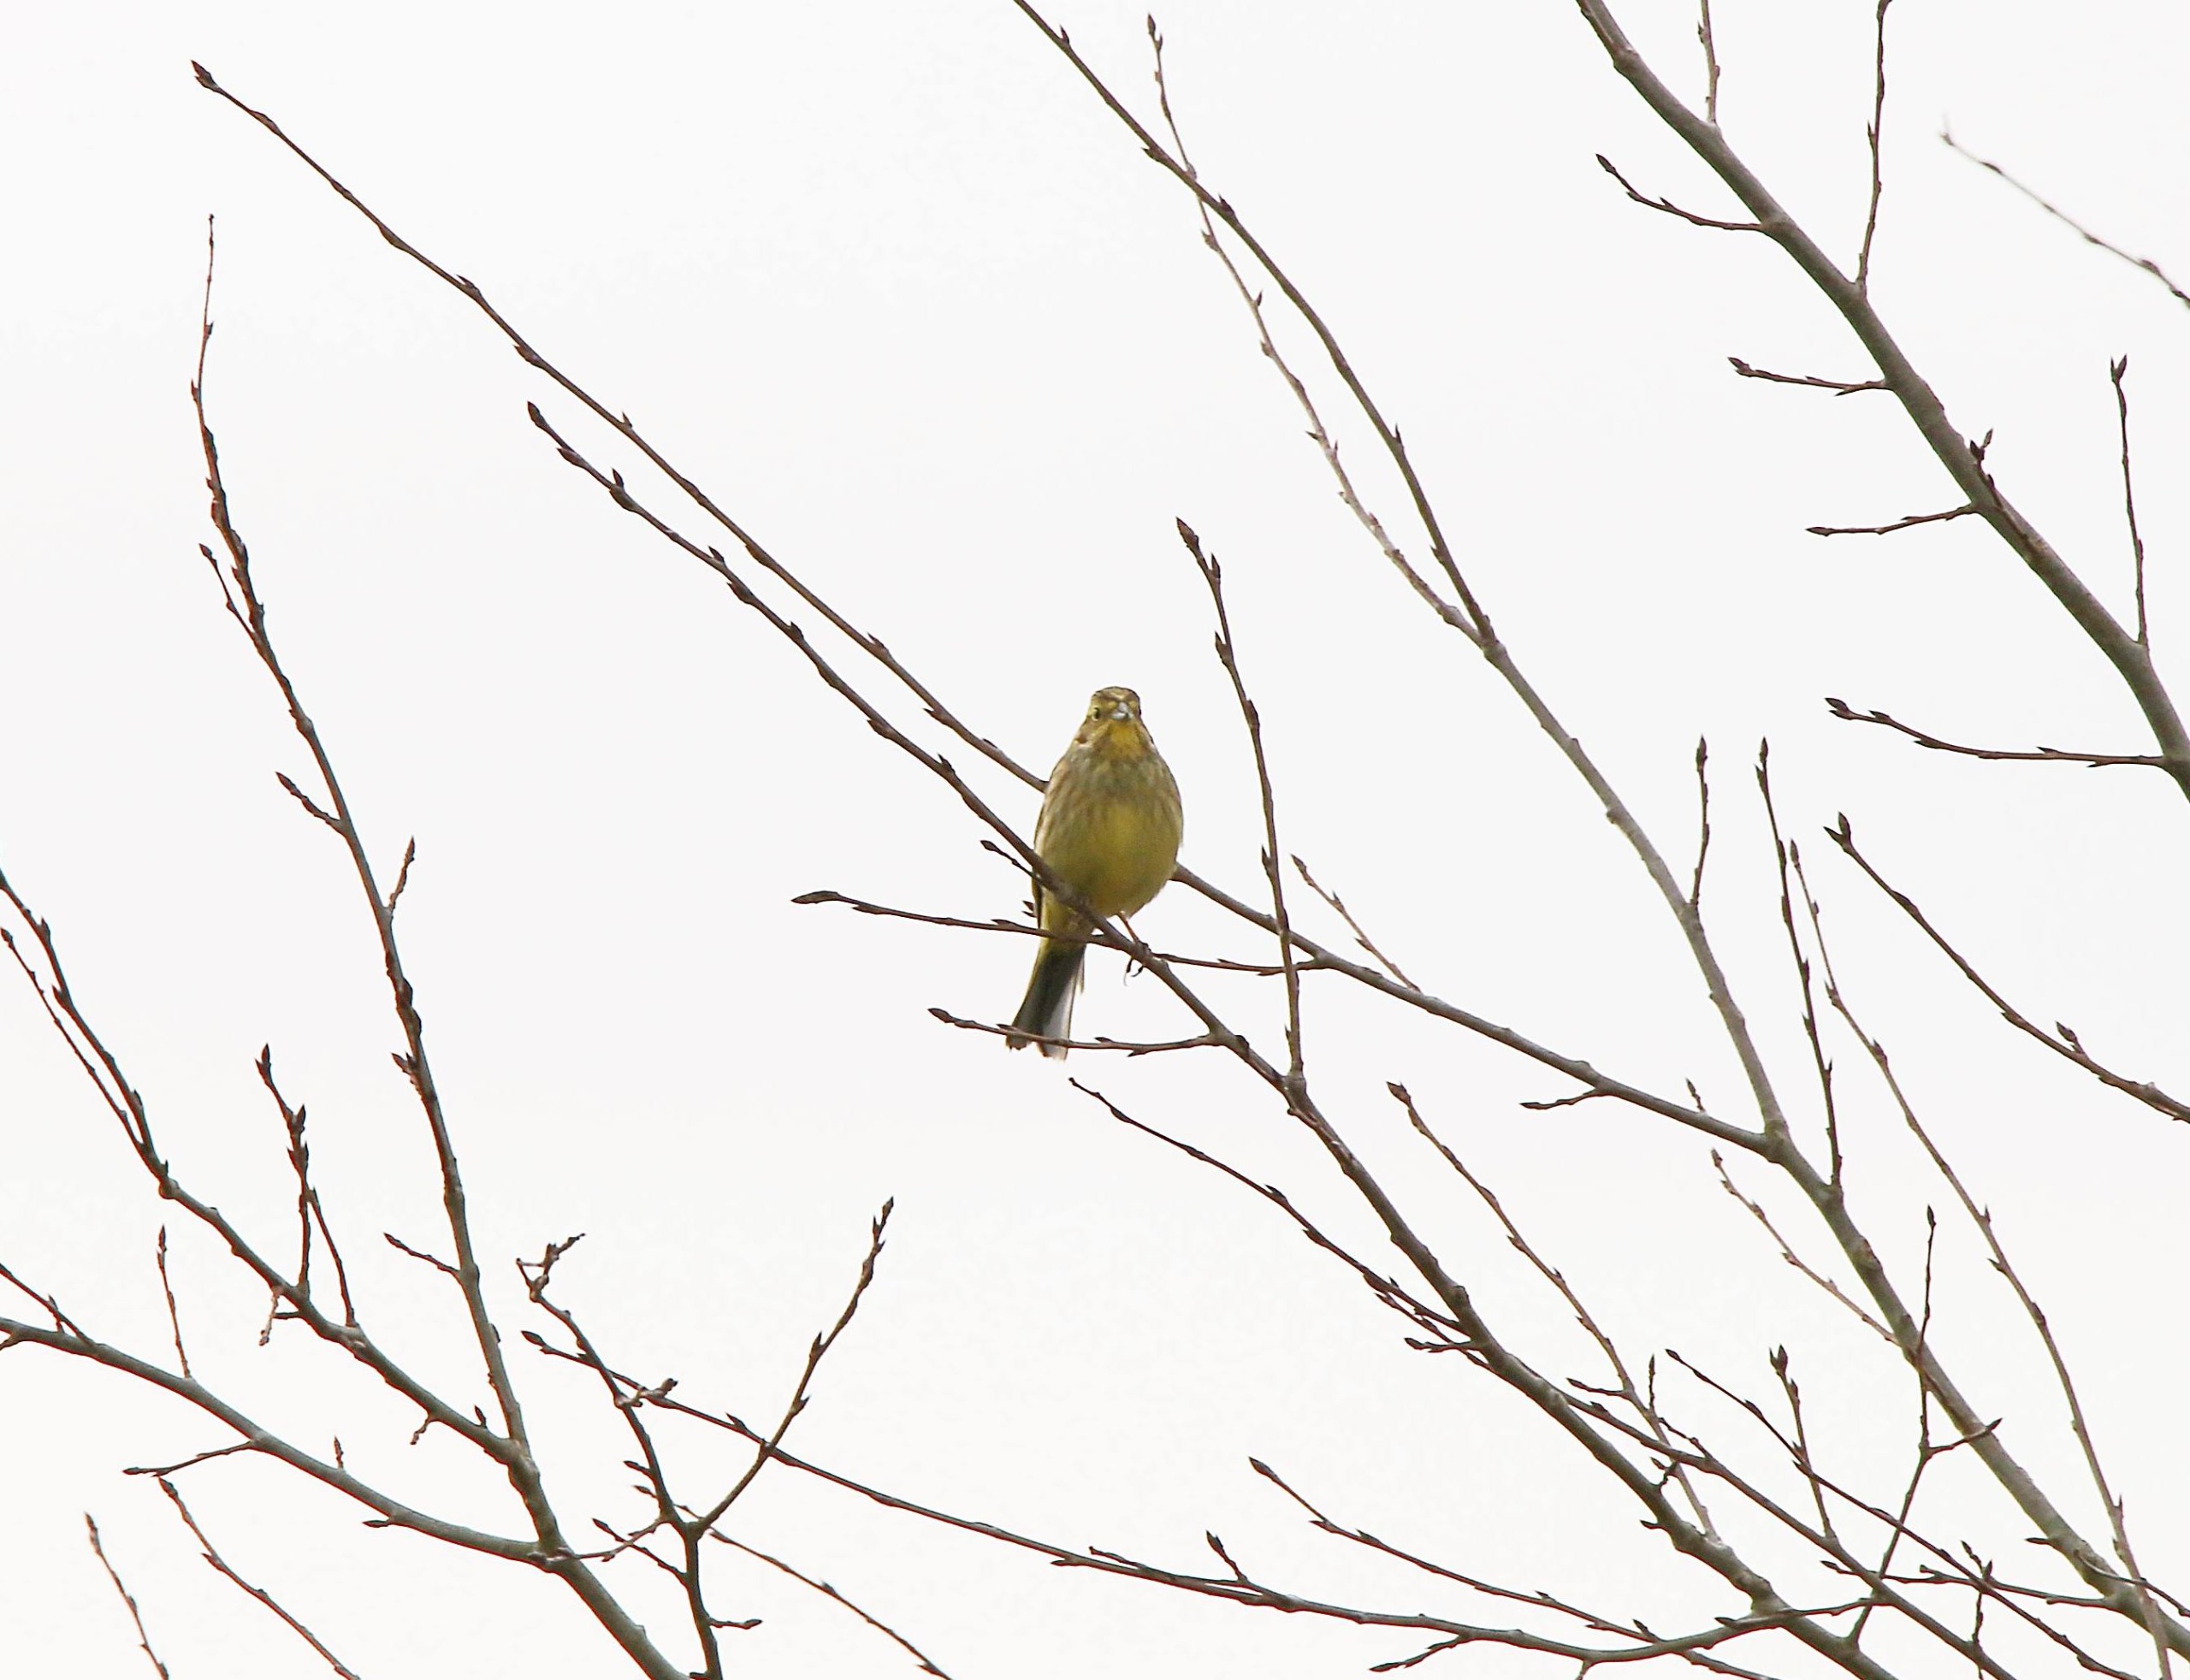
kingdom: Animalia
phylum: Chordata
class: Aves
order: Passeriformes
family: Emberizidae
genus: Emberiza
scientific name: Emberiza citrinella
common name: Gulspurv
